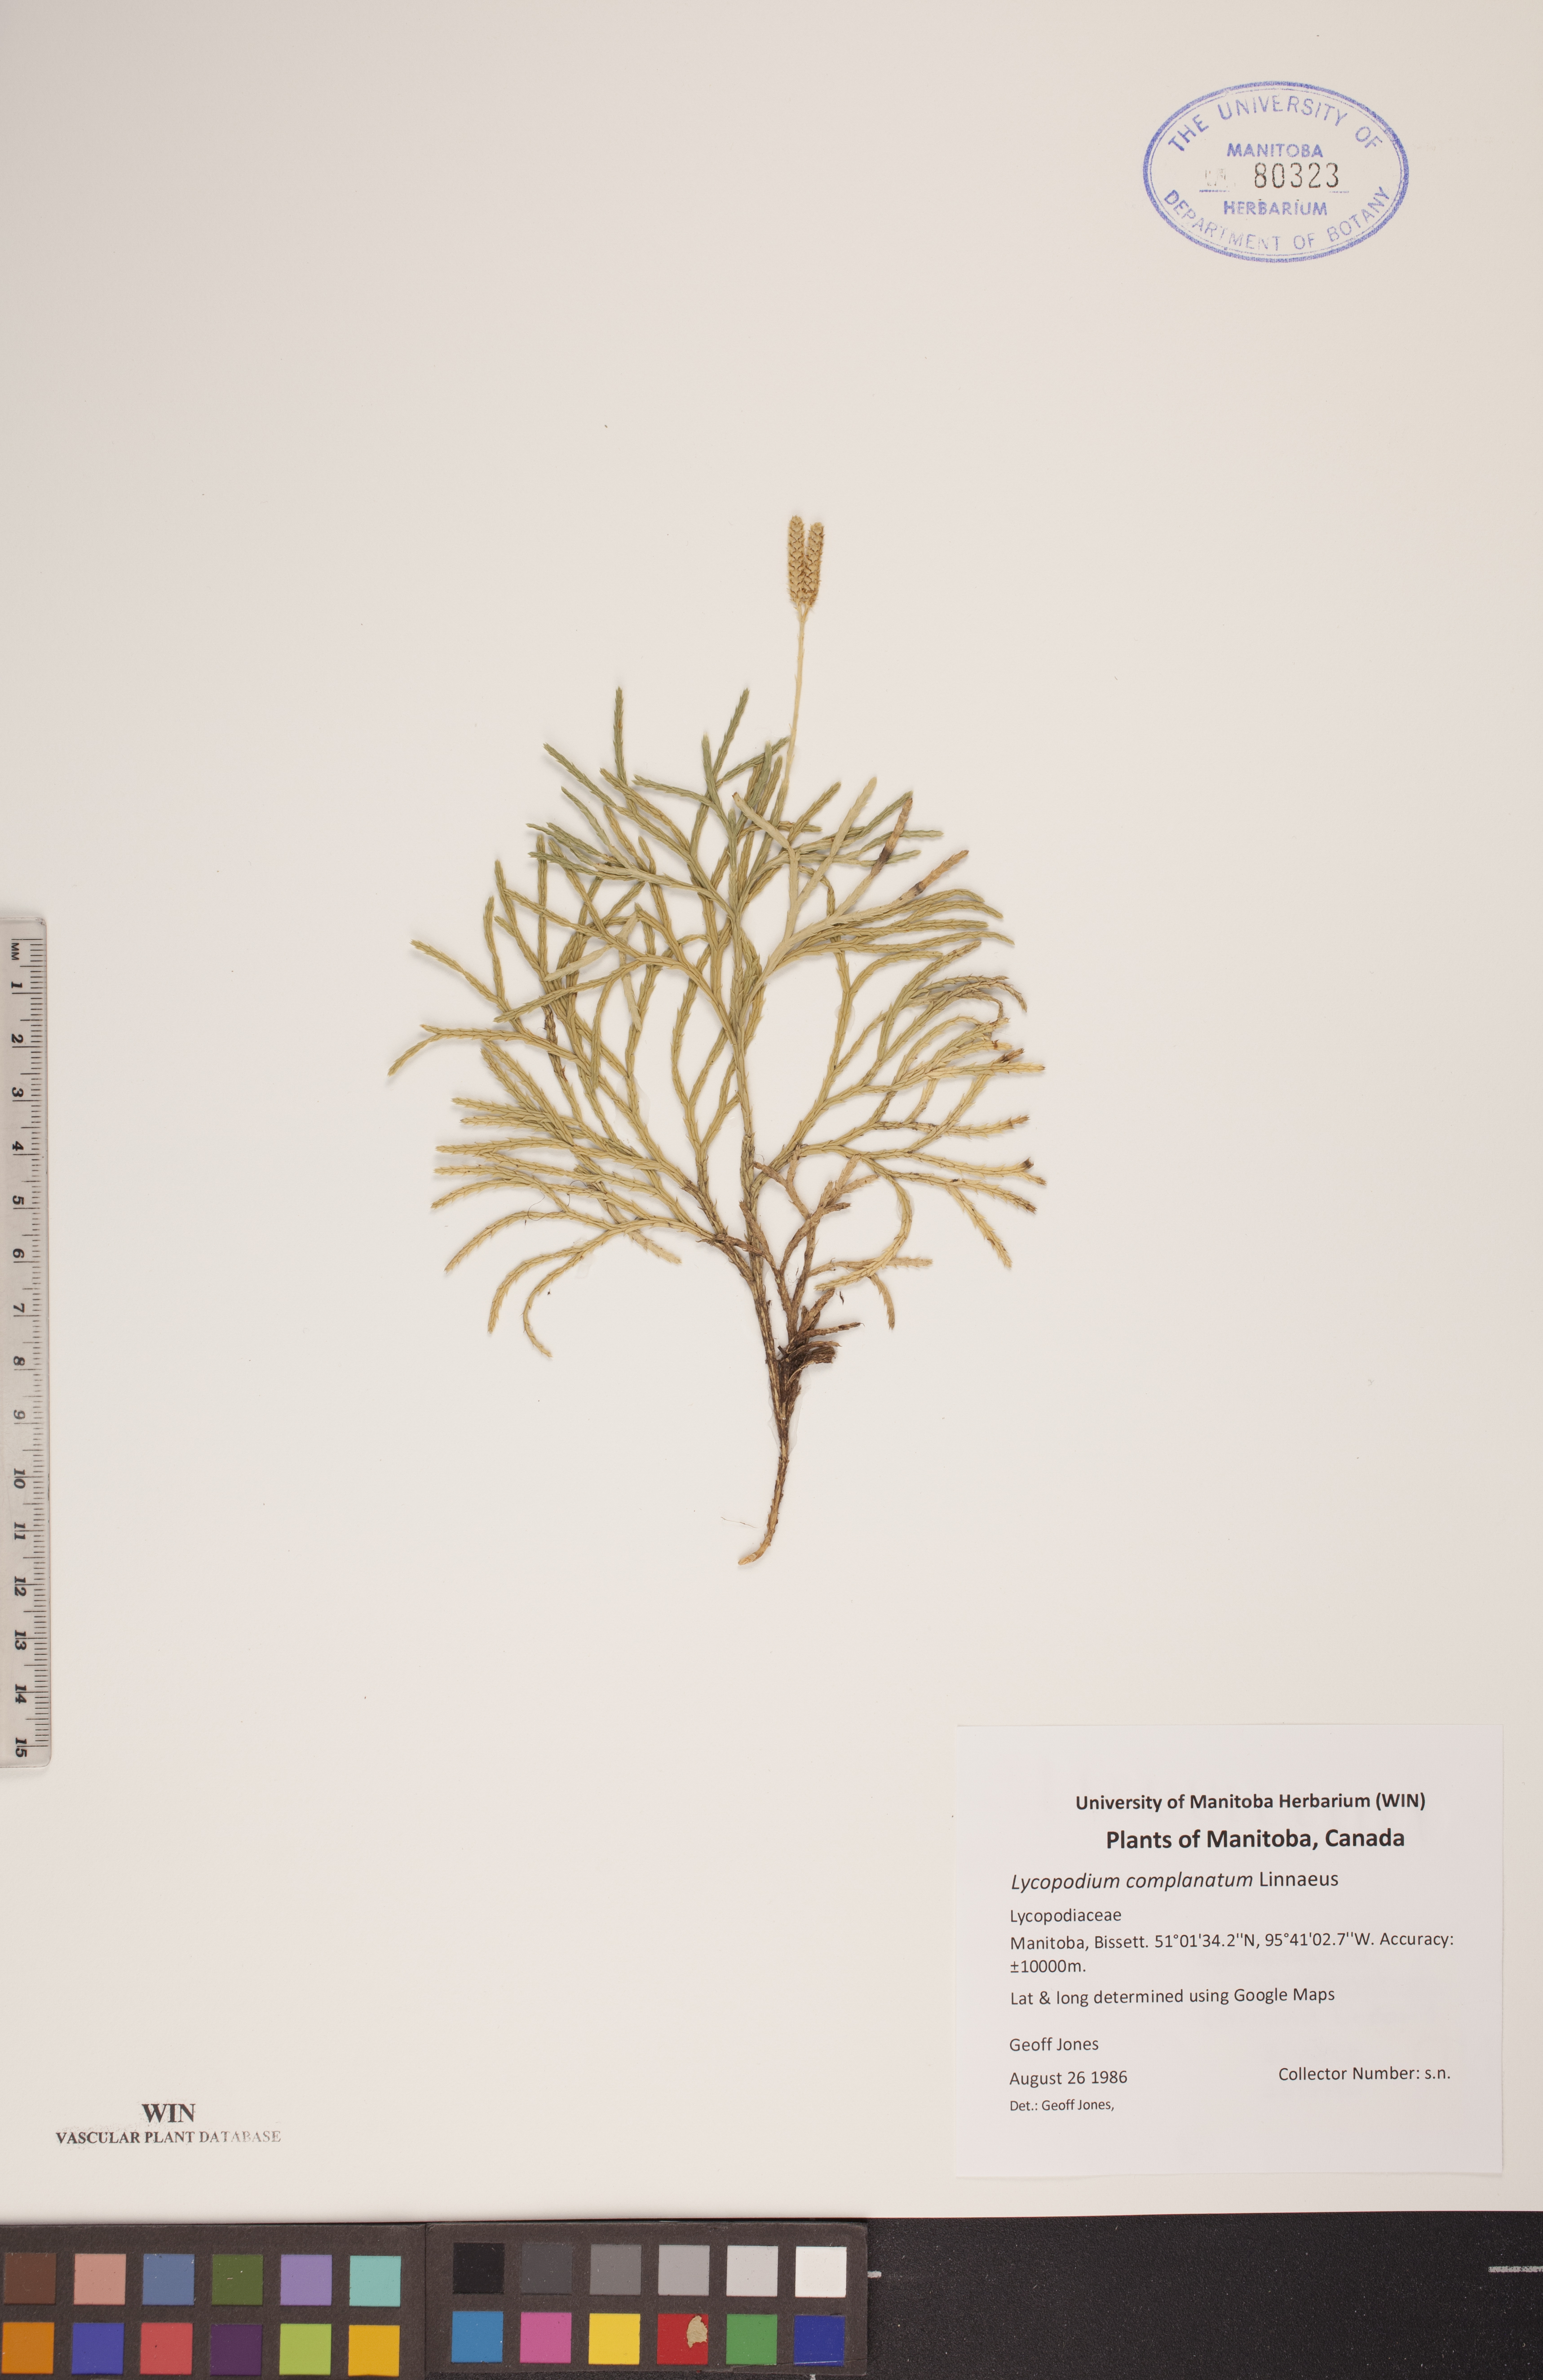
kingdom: Plantae
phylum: Tracheophyta
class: Lycopodiopsida
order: Lycopodiales
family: Lycopodiaceae
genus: Diphasiastrum
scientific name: Diphasiastrum complanatum
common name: Northern running-pine
